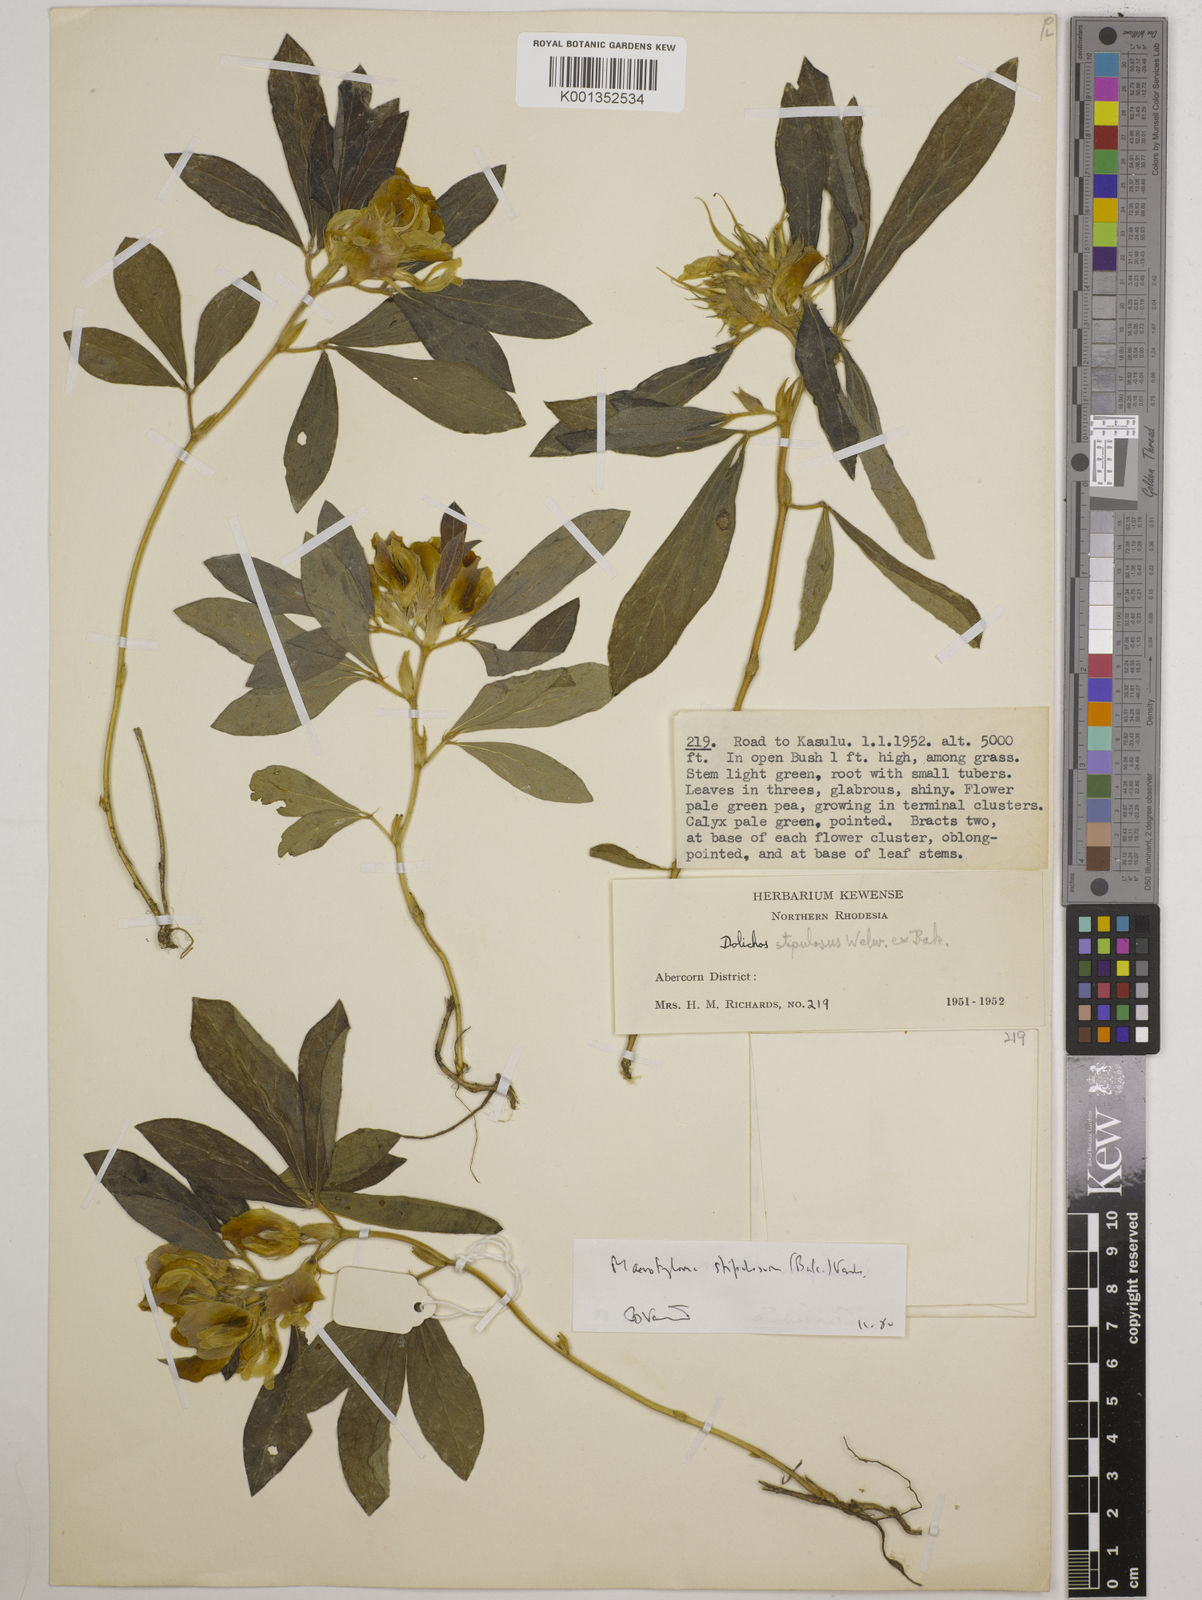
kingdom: Plantae
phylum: Tracheophyta
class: Magnoliopsida
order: Fabales
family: Fabaceae
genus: Macrotyloma
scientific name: Macrotyloma stipulosum
